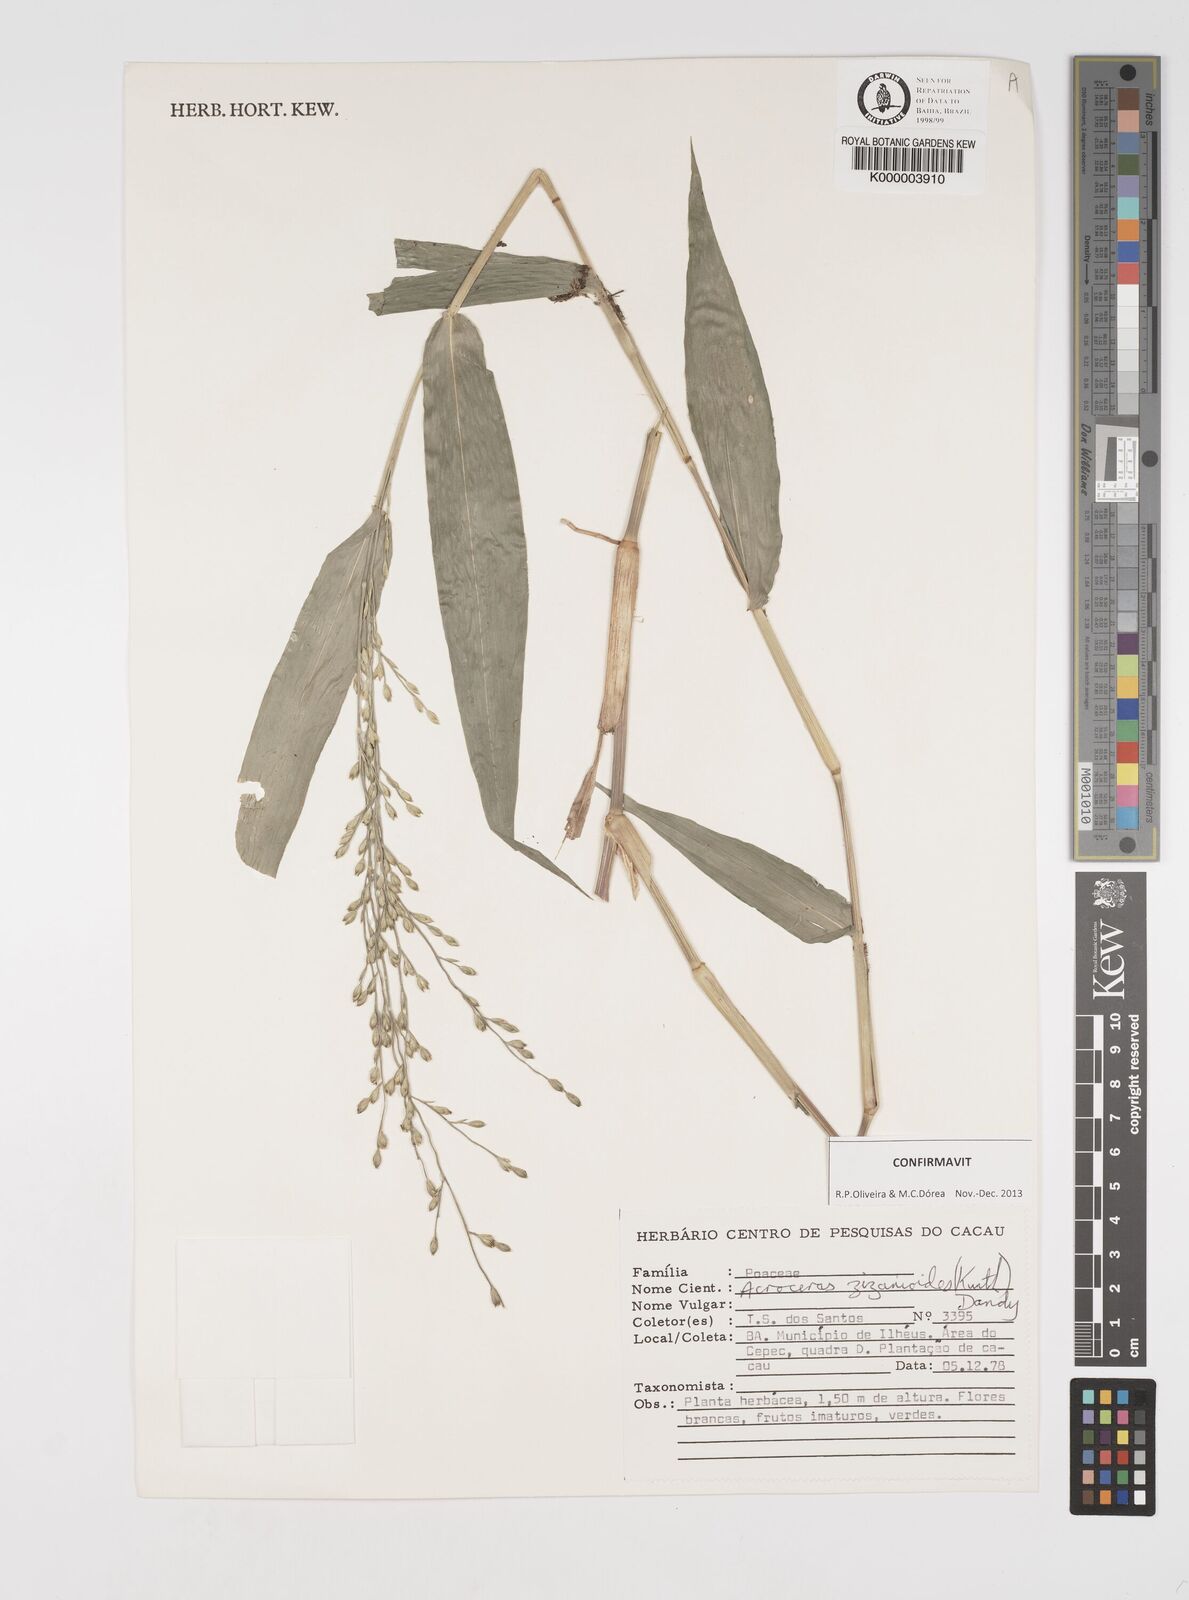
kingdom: Plantae
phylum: Tracheophyta
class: Liliopsida
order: Poales
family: Poaceae
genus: Acroceras
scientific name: Acroceras zizanioides
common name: Oat grass
